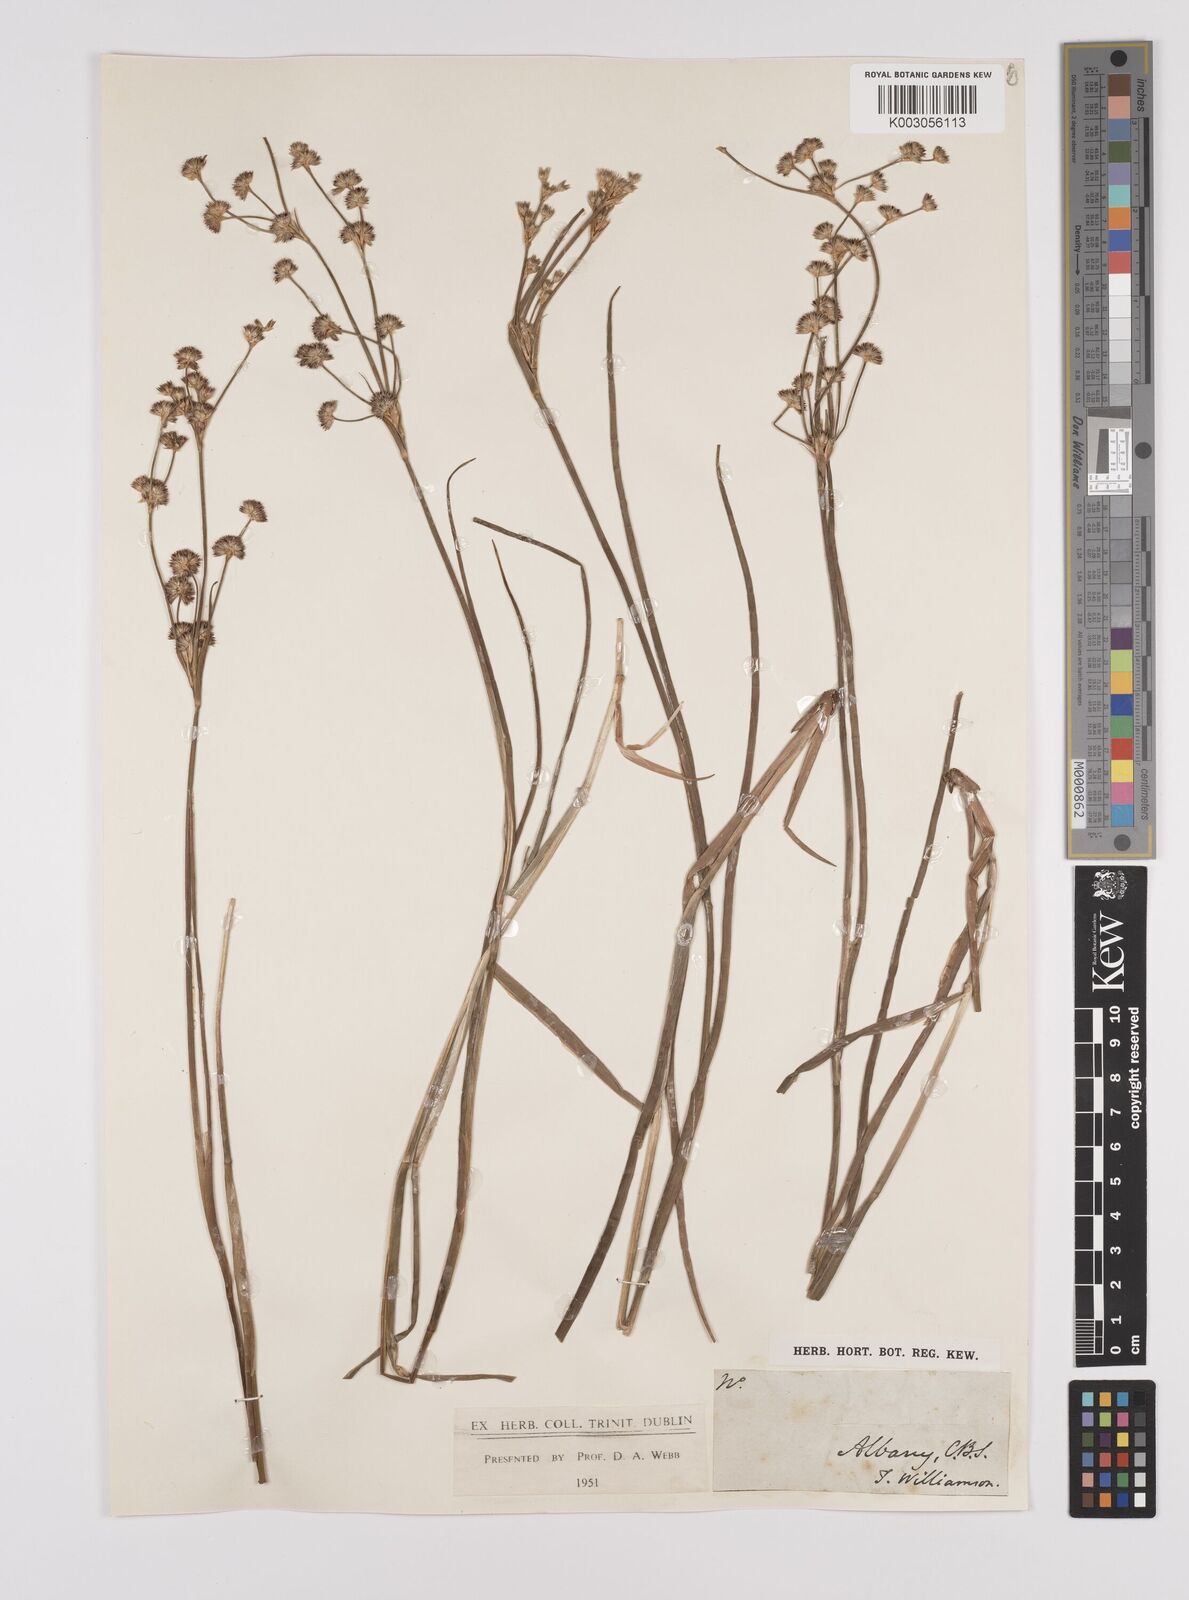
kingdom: Plantae
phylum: Tracheophyta
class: Liliopsida
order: Poales
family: Juncaceae
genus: Juncus
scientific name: Juncus
